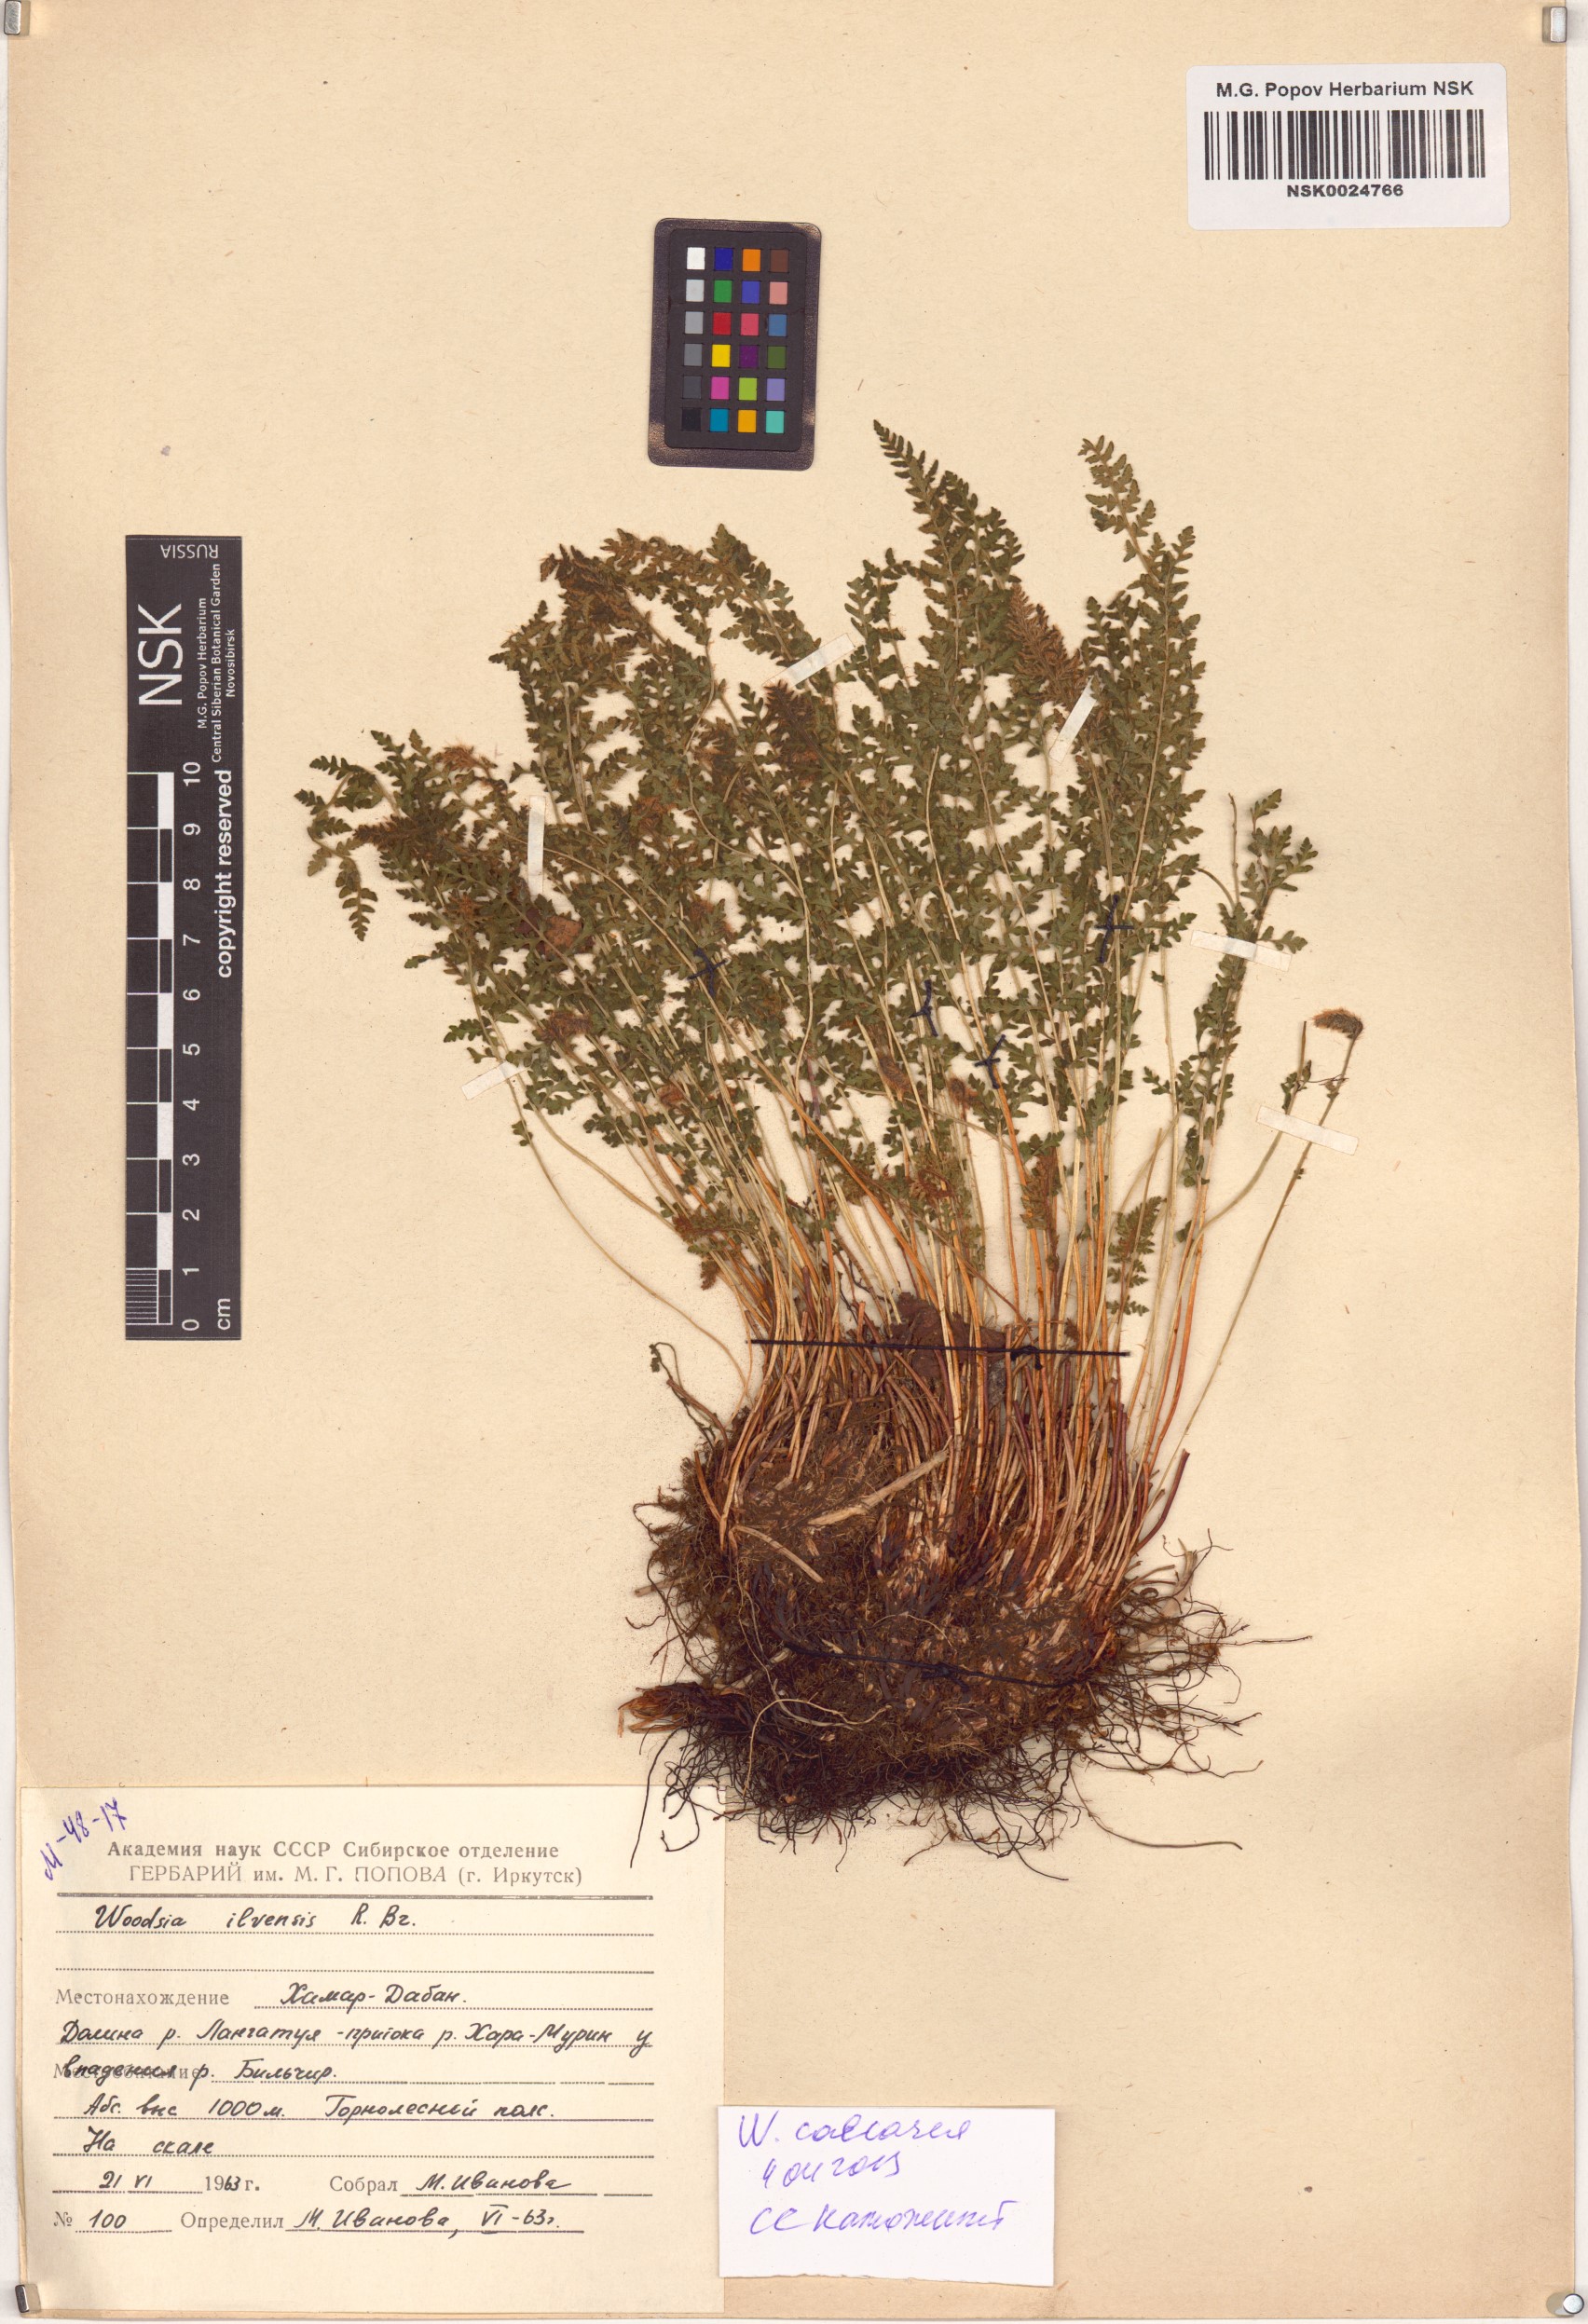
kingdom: Plantae
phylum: Tracheophyta
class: Polypodiopsida
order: Polypodiales
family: Woodsiaceae
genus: Woodsia
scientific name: Woodsia calcarea
